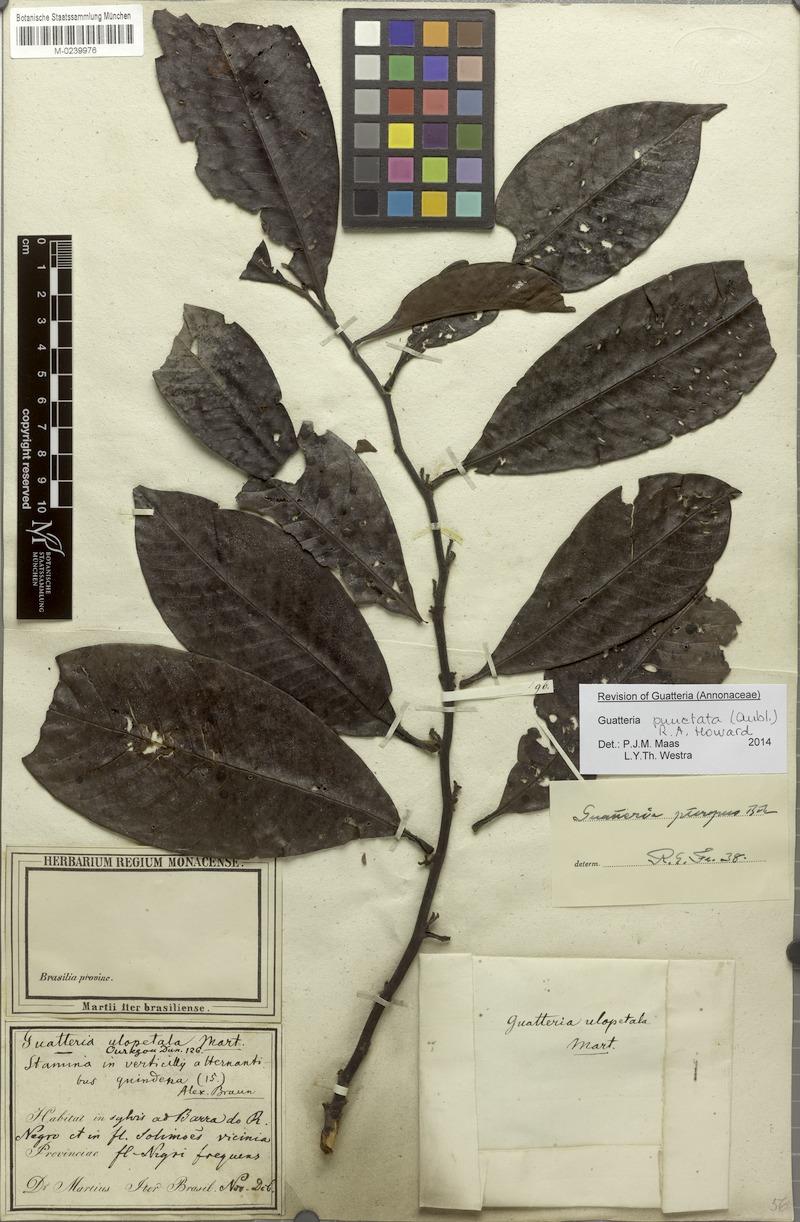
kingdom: Plantae
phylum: Tracheophyta
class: Magnoliopsida
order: Magnoliales
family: Annonaceae
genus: Guatteria
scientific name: Guatteria punctata
